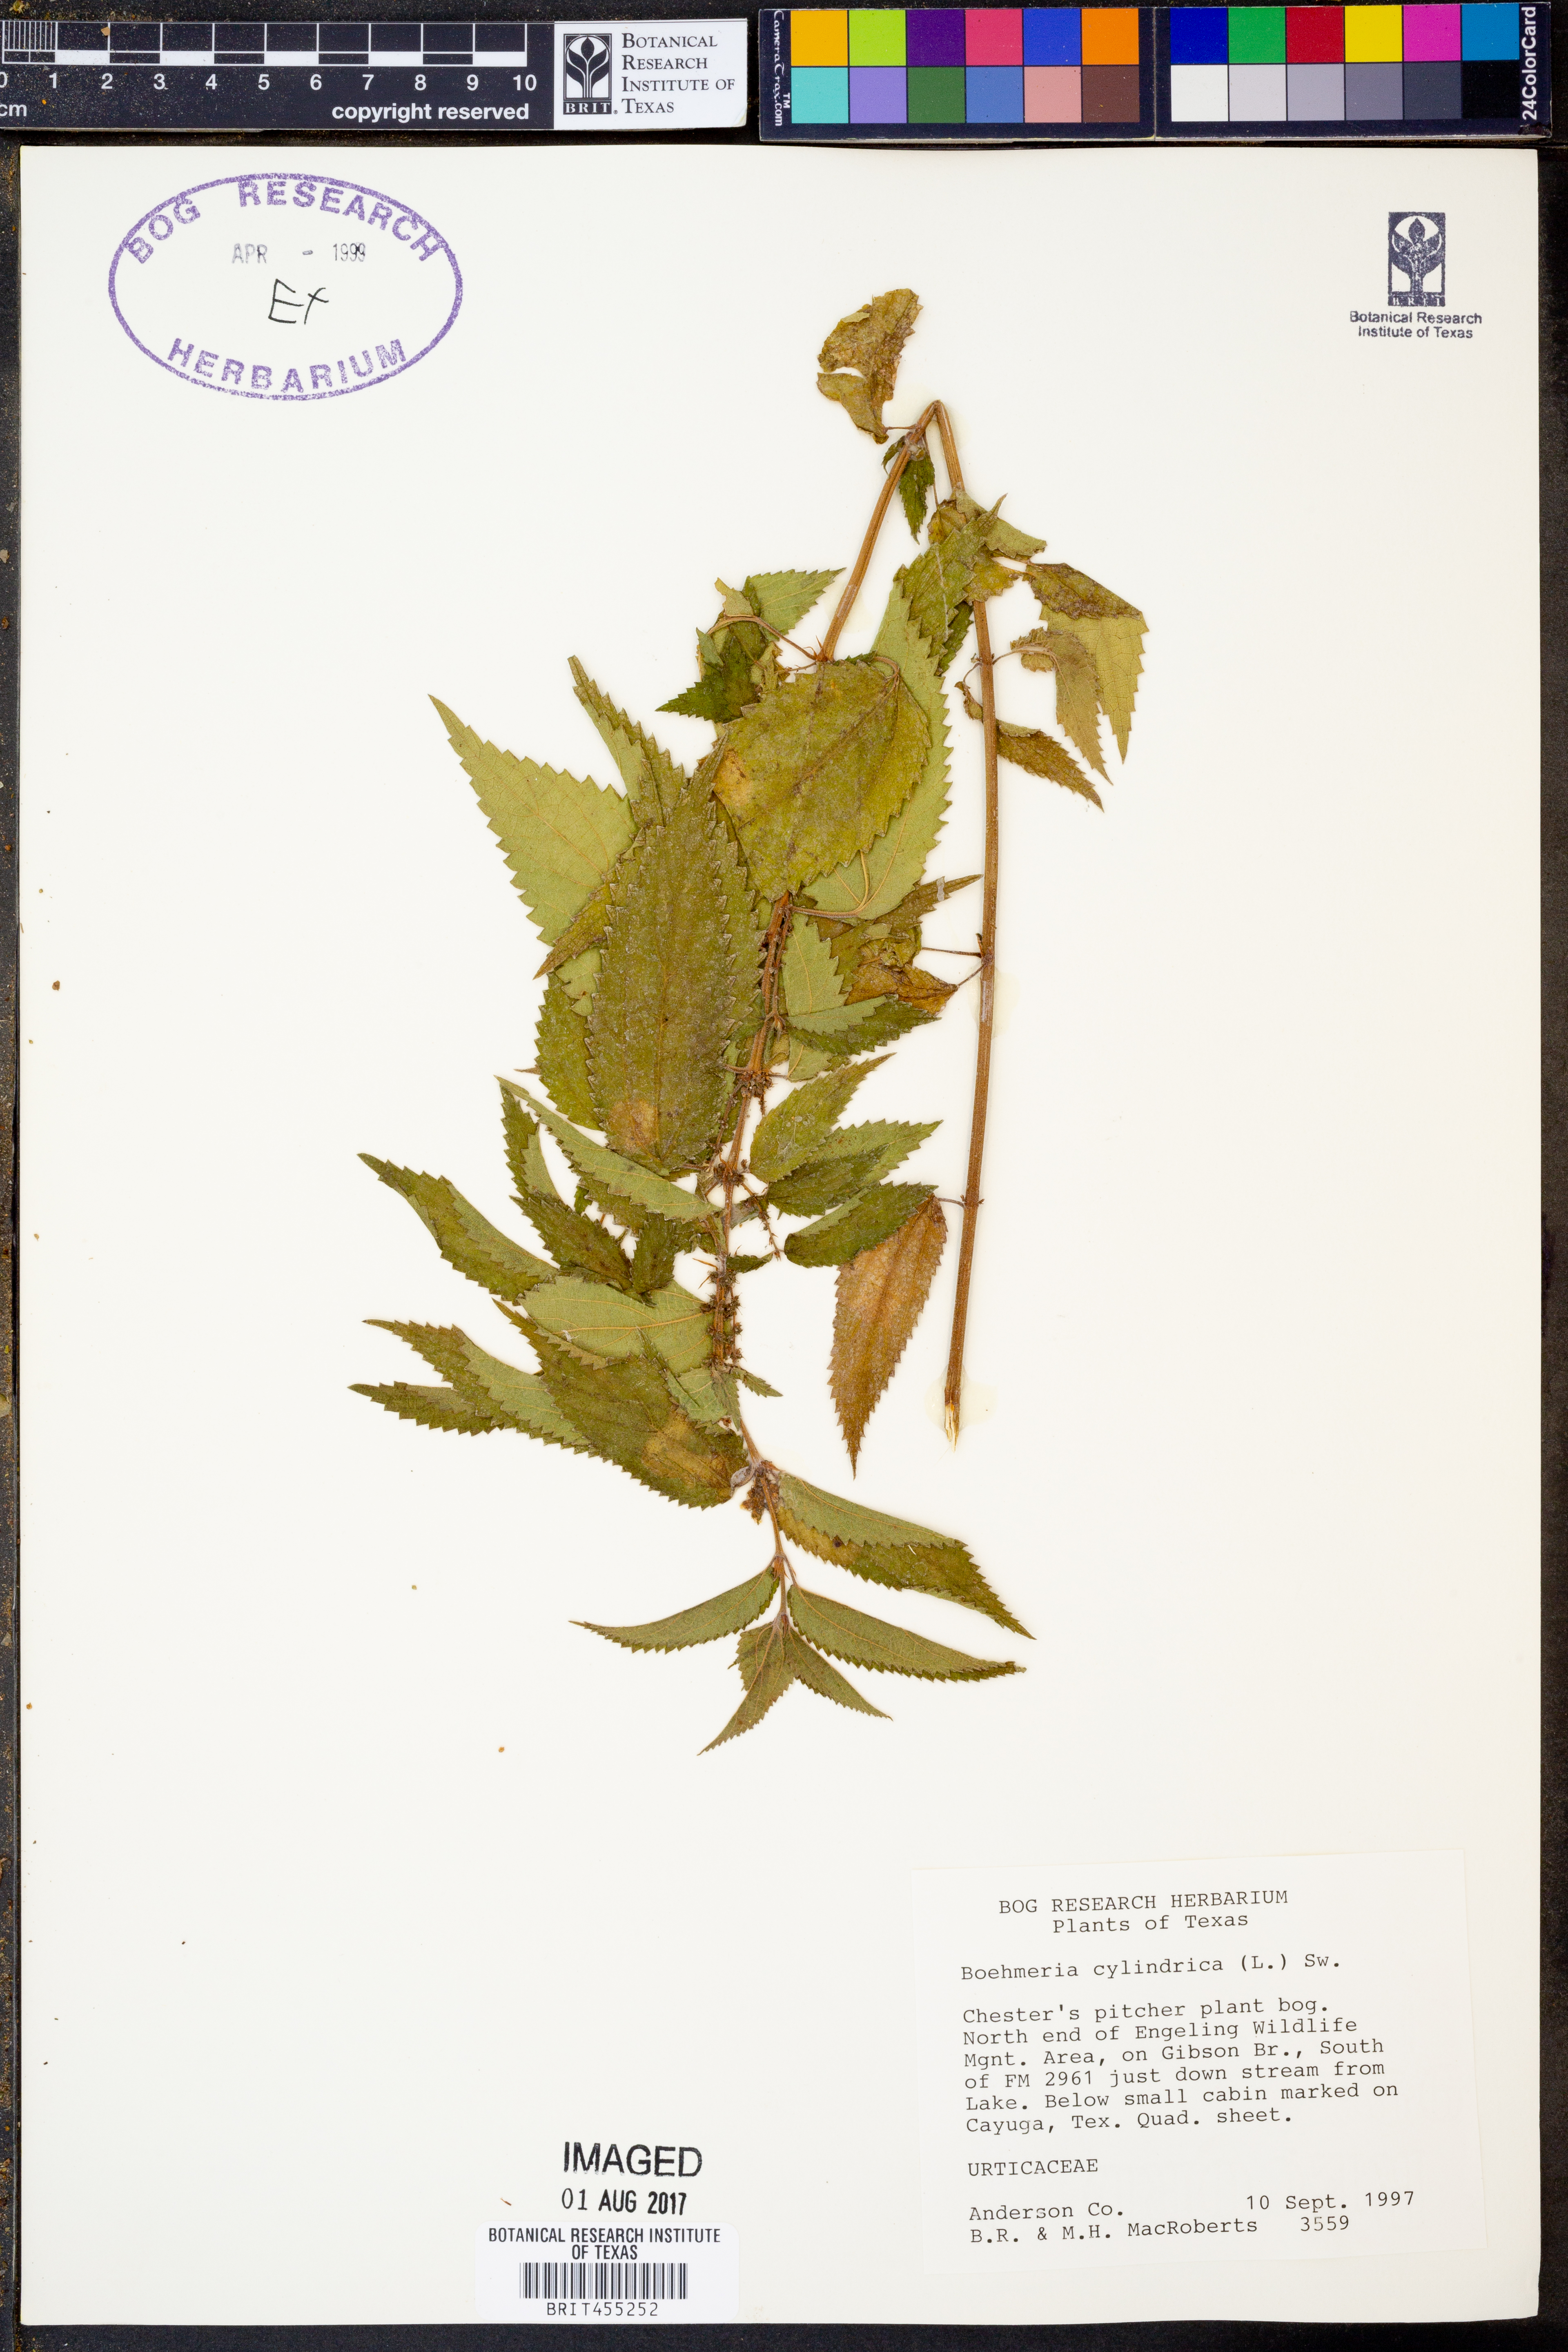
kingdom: Plantae
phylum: Tracheophyta
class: Magnoliopsida
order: Rosales
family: Urticaceae
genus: Boehmeria
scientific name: Boehmeria cylindrica
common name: Bog-hemp
